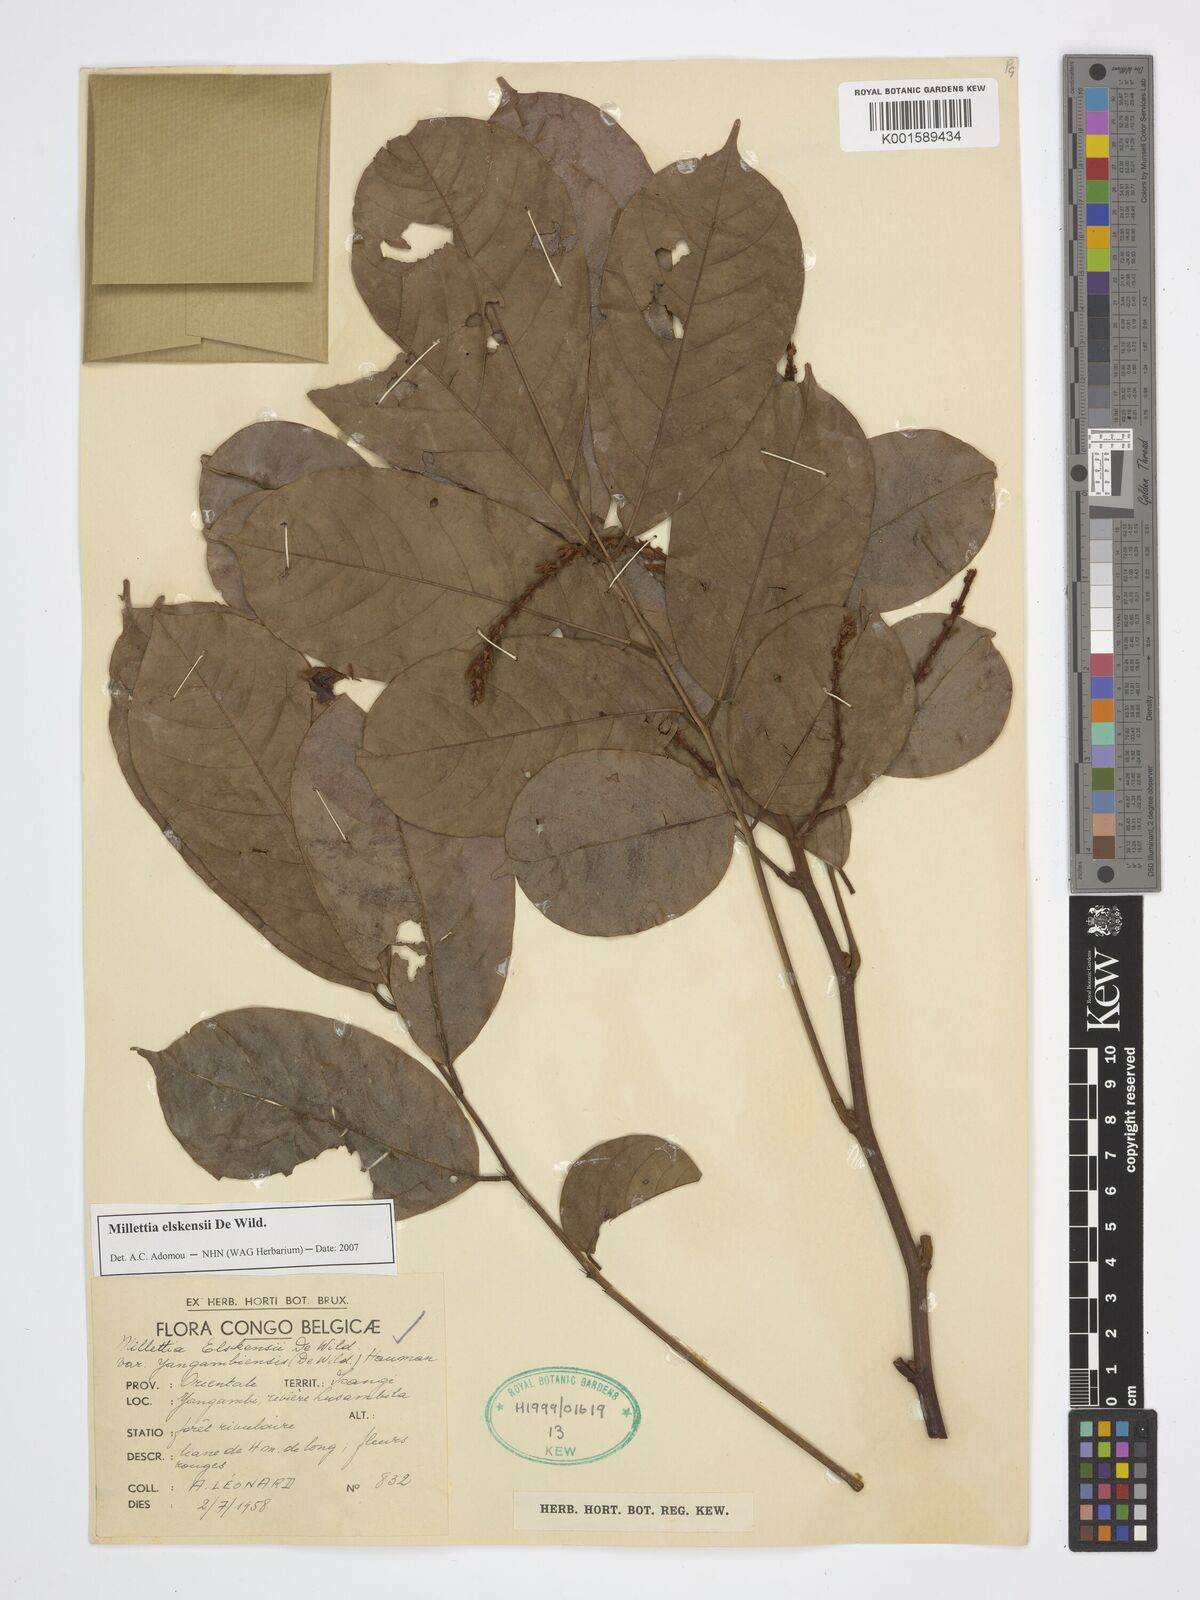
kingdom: Plantae
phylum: Tracheophyta
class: Magnoliopsida
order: Fabales
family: Fabaceae
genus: Millettia
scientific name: Millettia elskensii
